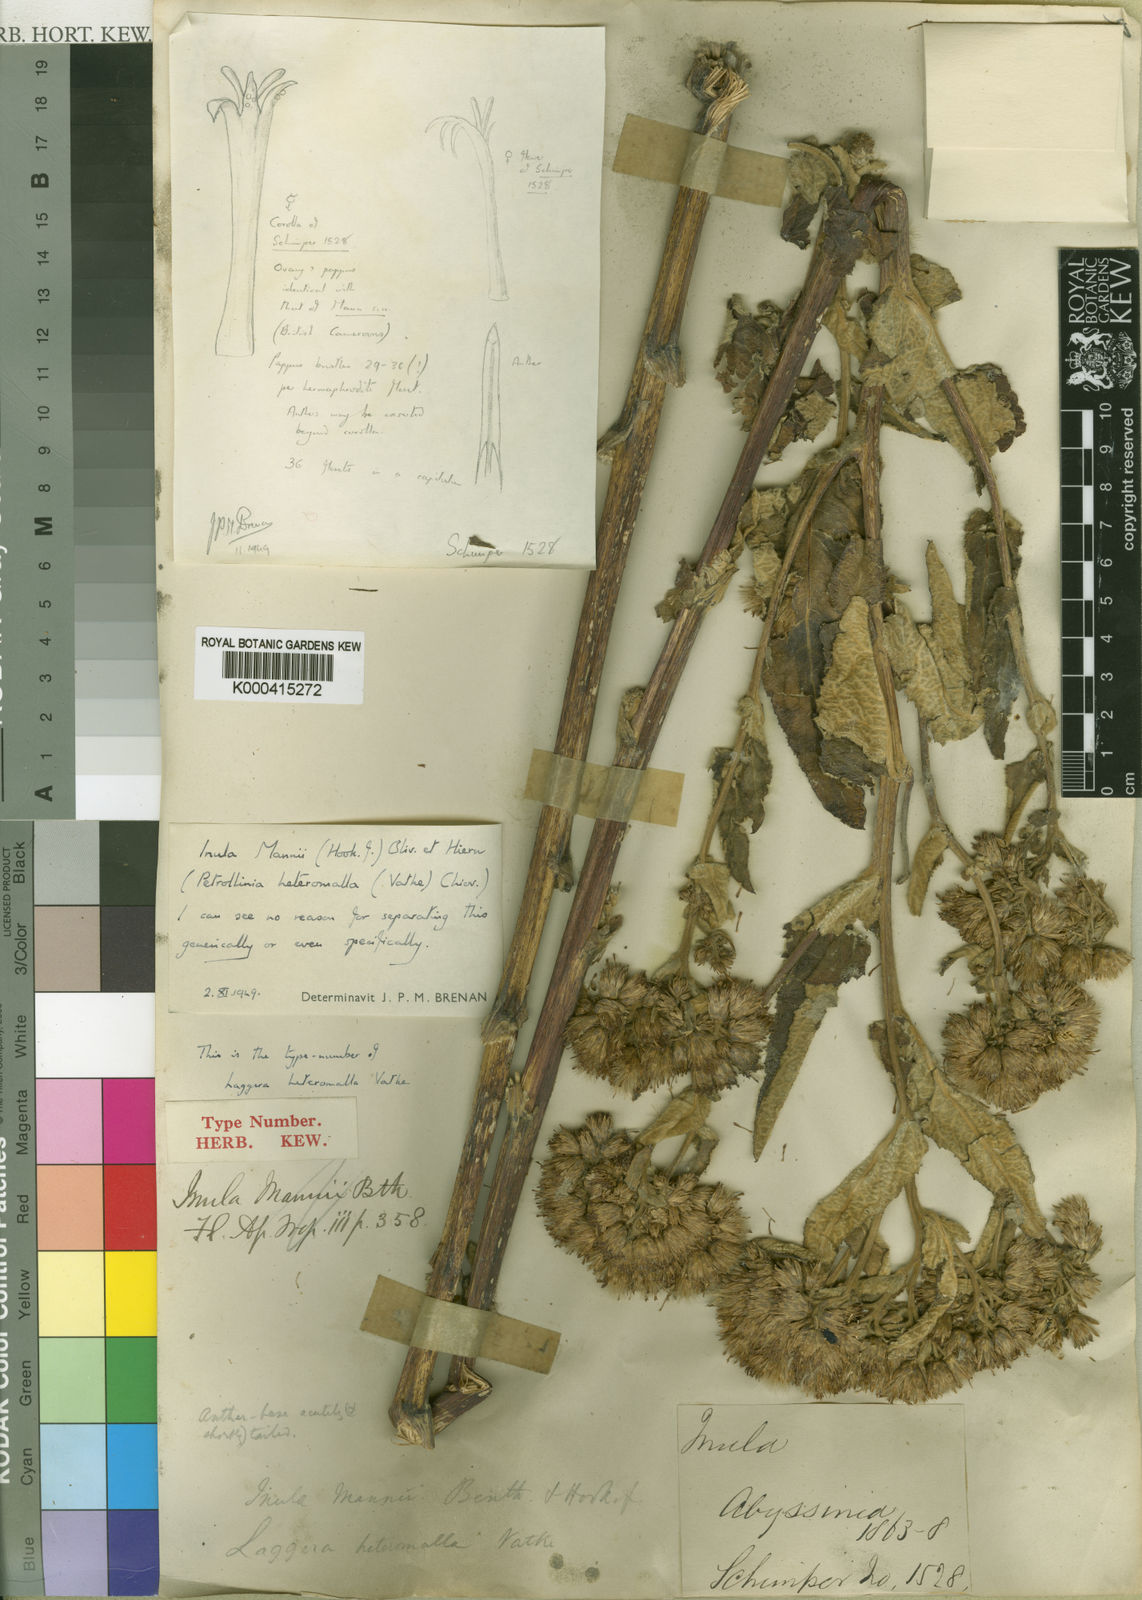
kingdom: Plantae
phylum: Tracheophyta
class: Magnoliopsida
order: Asterales
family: Asteraceae
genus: Inula
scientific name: Inula mannii
